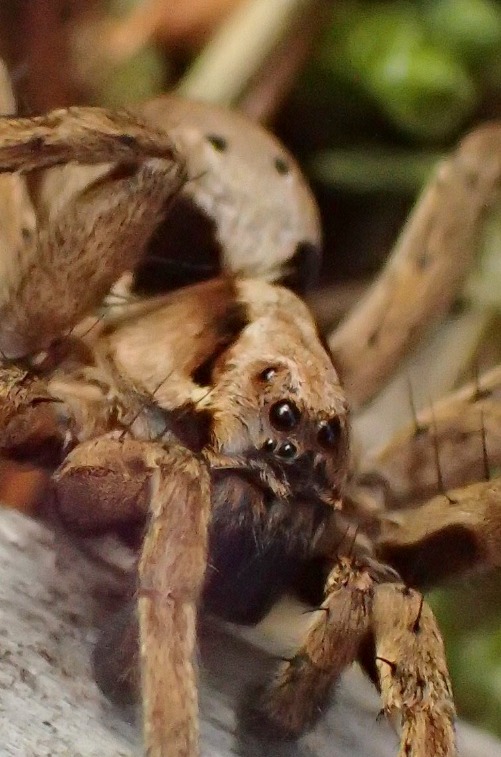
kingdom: Animalia
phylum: Arthropoda
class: Arachnida
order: Araneae
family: Lycosidae
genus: Alopecosa
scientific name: Alopecosa inquilina
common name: Stor kæmpejæger
